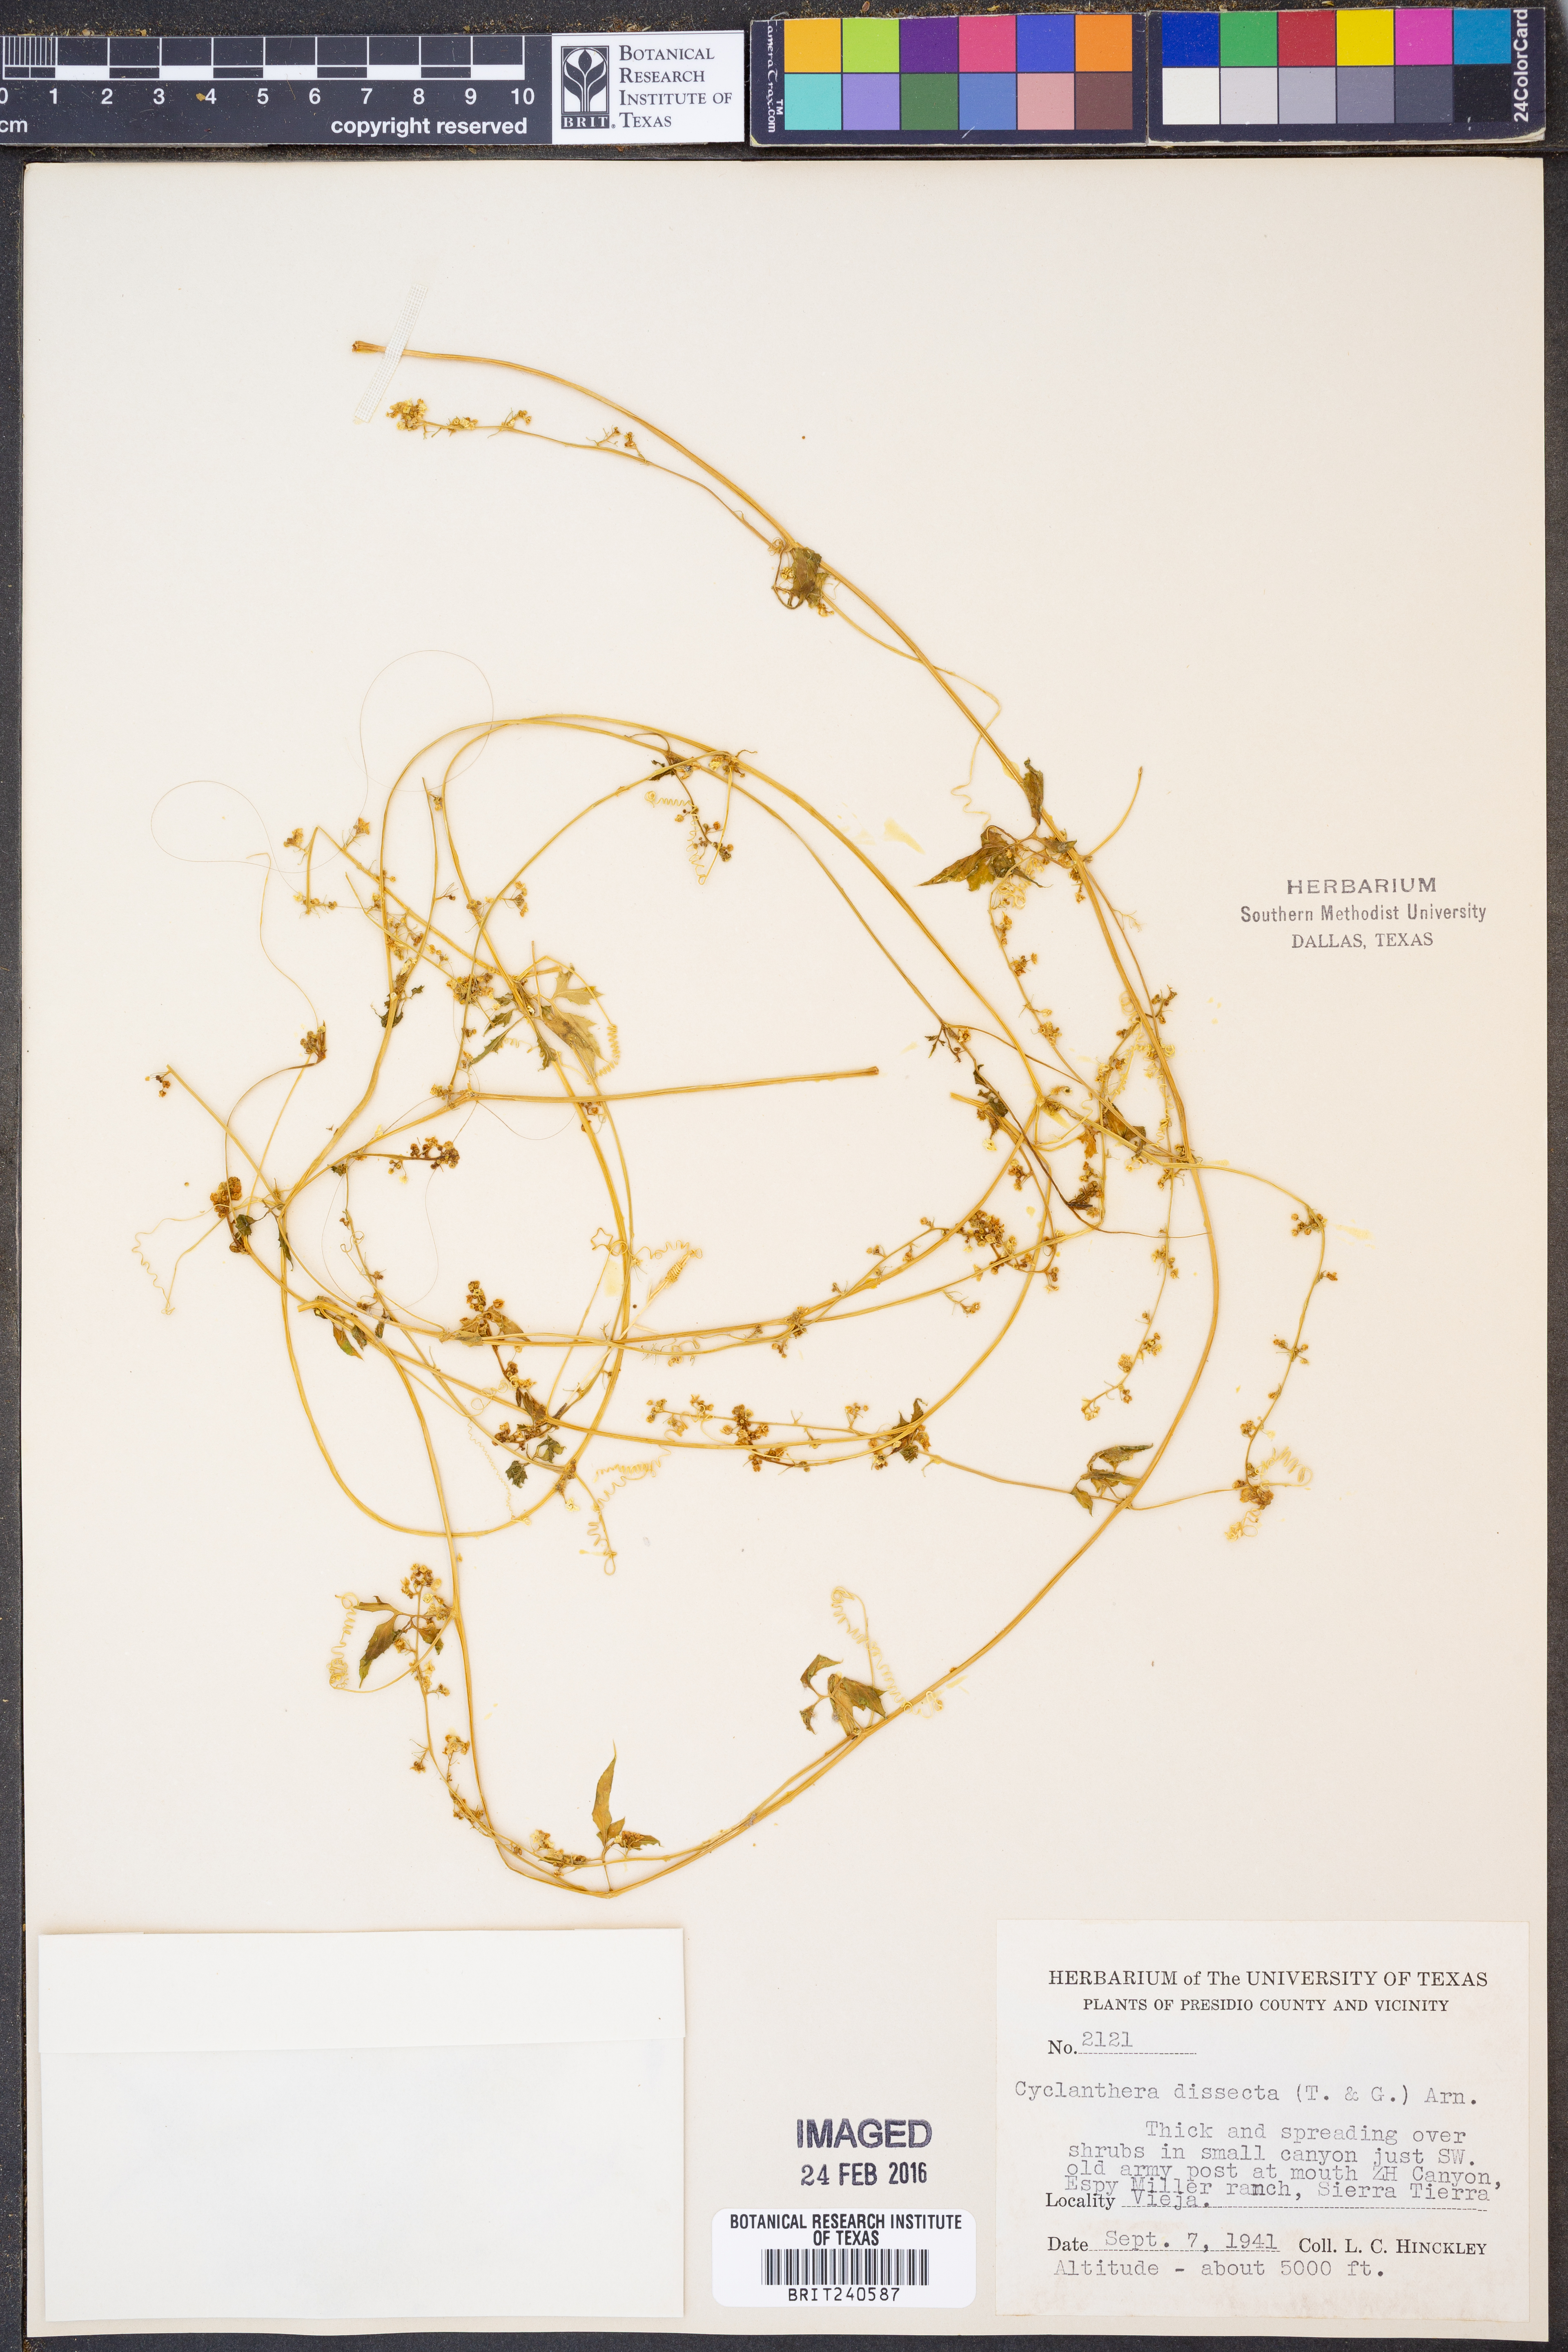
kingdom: Plantae
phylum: Tracheophyta
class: Magnoliopsida
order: Cucurbitales
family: Cucurbitaceae
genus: Cyclanthera
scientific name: Cyclanthera dissecta
